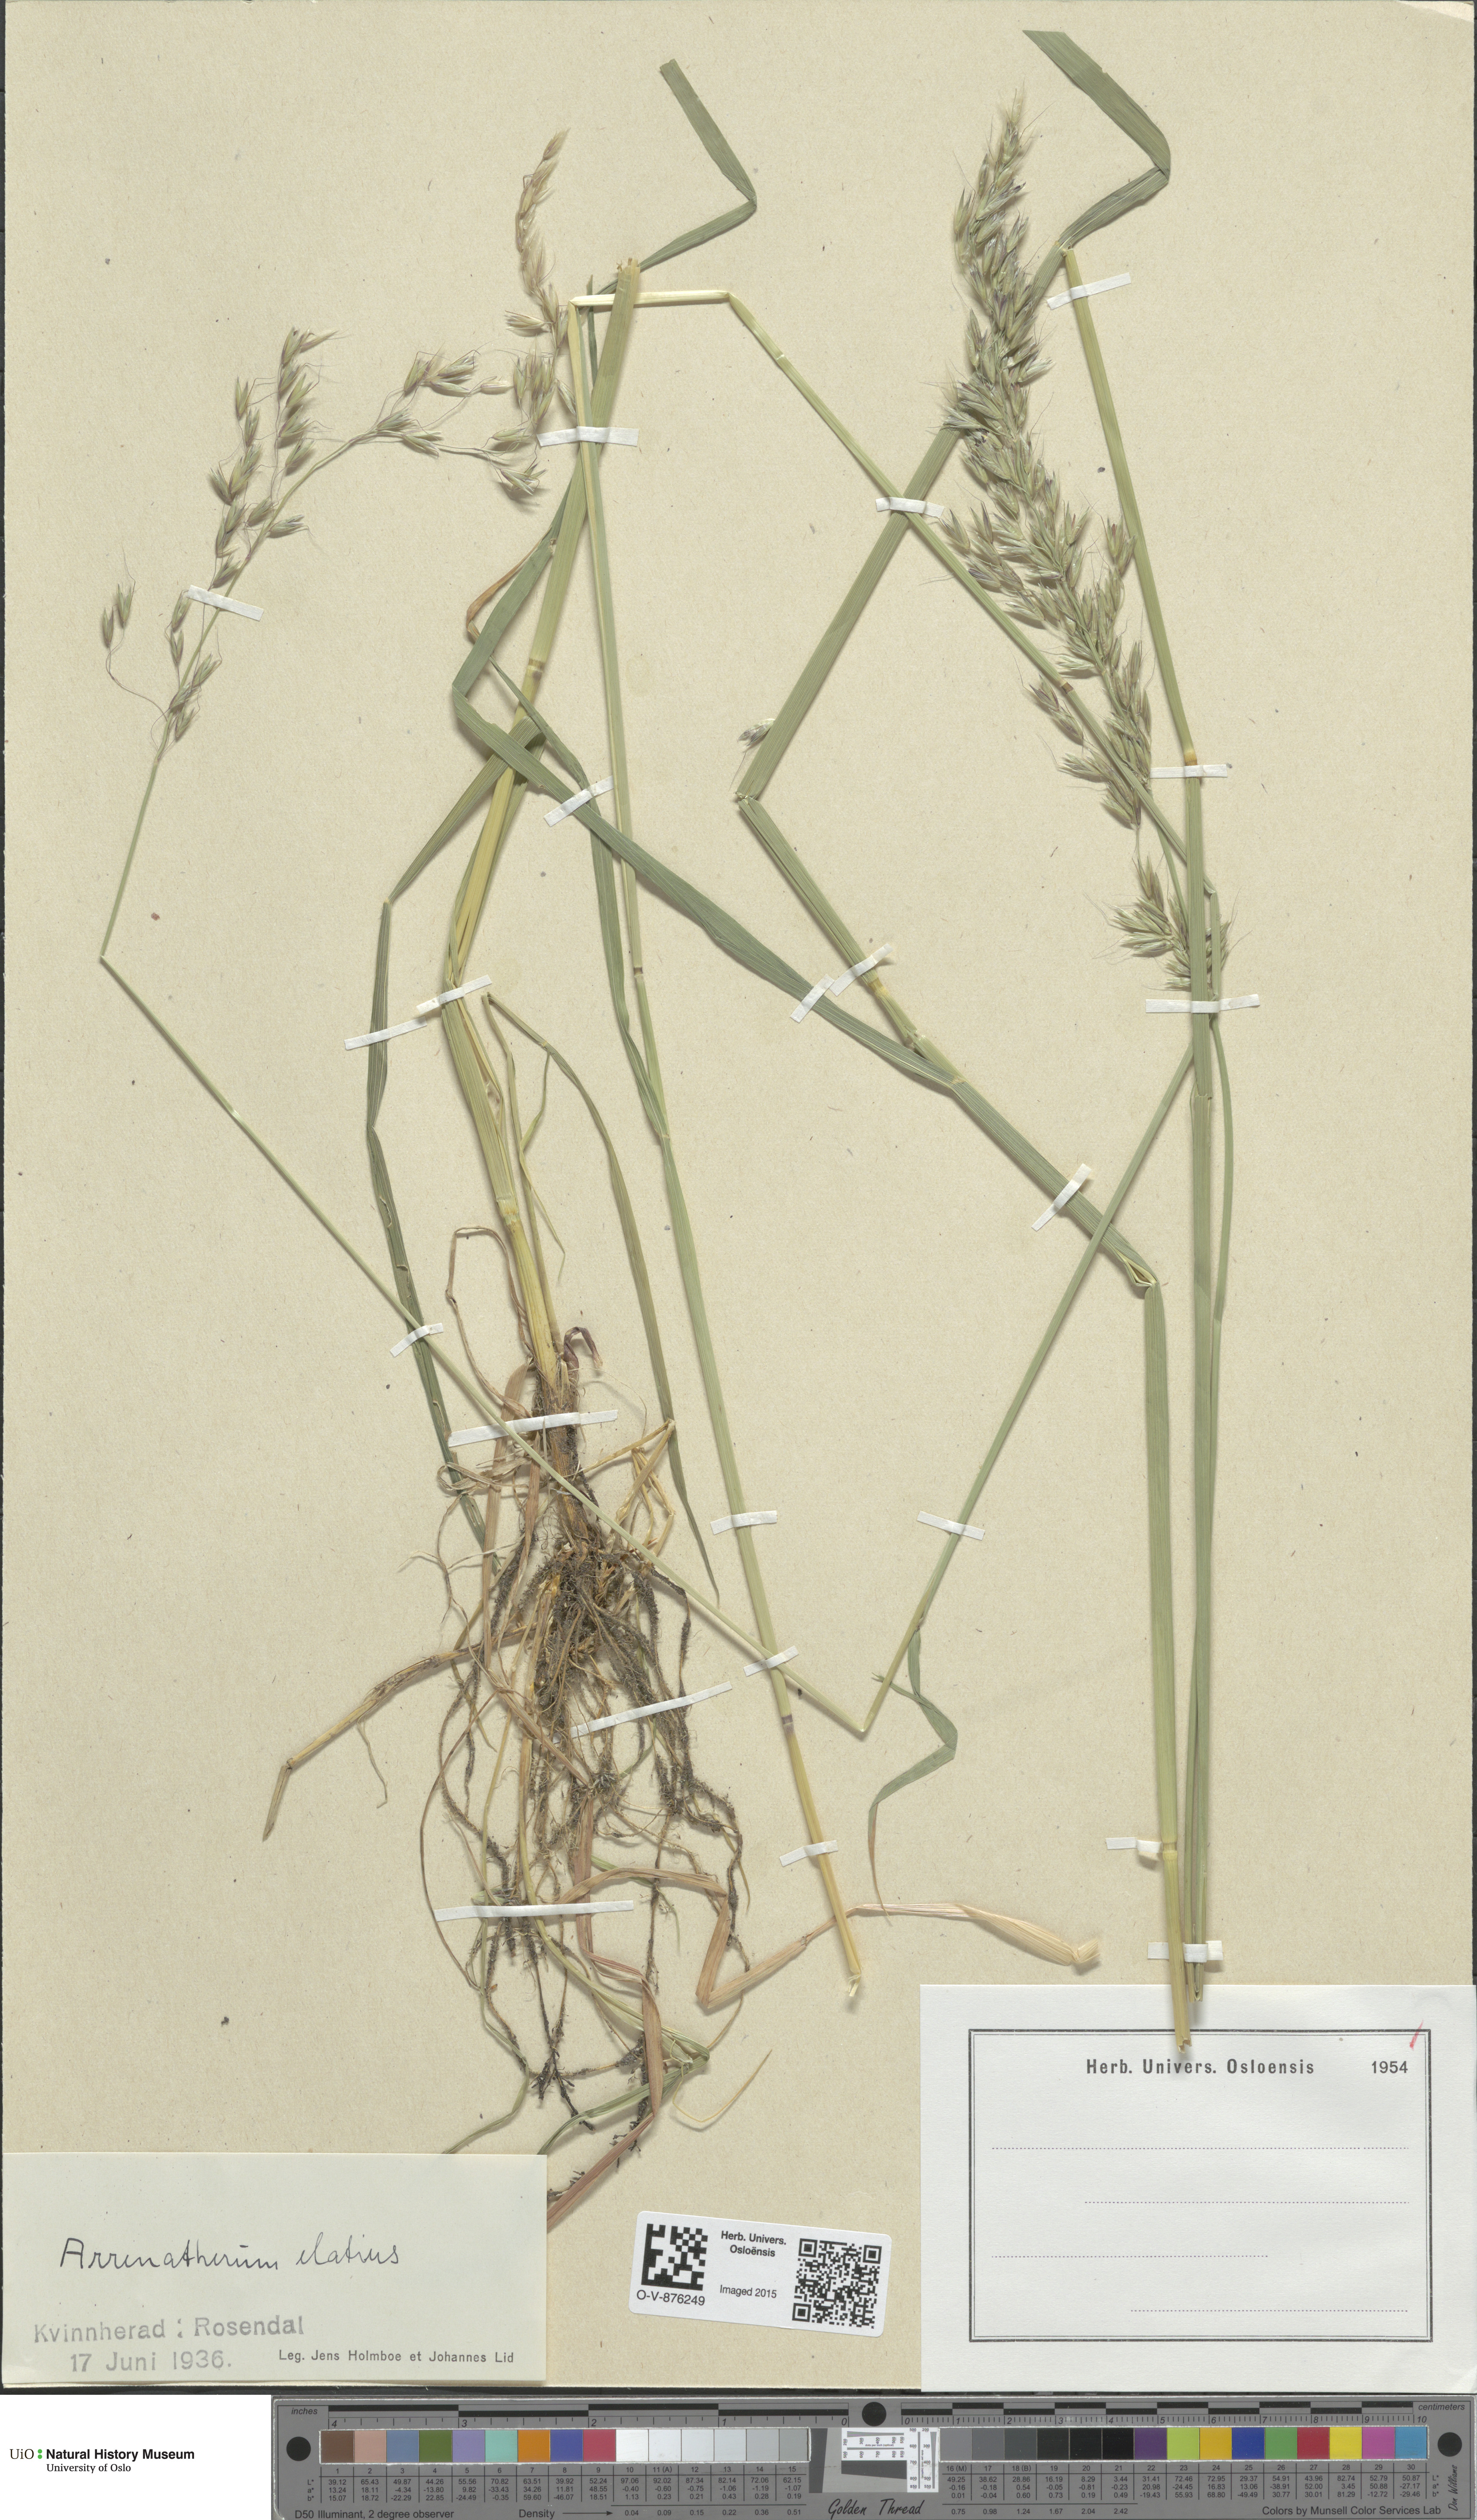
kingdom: Plantae
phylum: Tracheophyta
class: Liliopsida
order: Poales
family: Poaceae
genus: Arrhenatherum
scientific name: Arrhenatherum elatius
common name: Tall oatgrass
